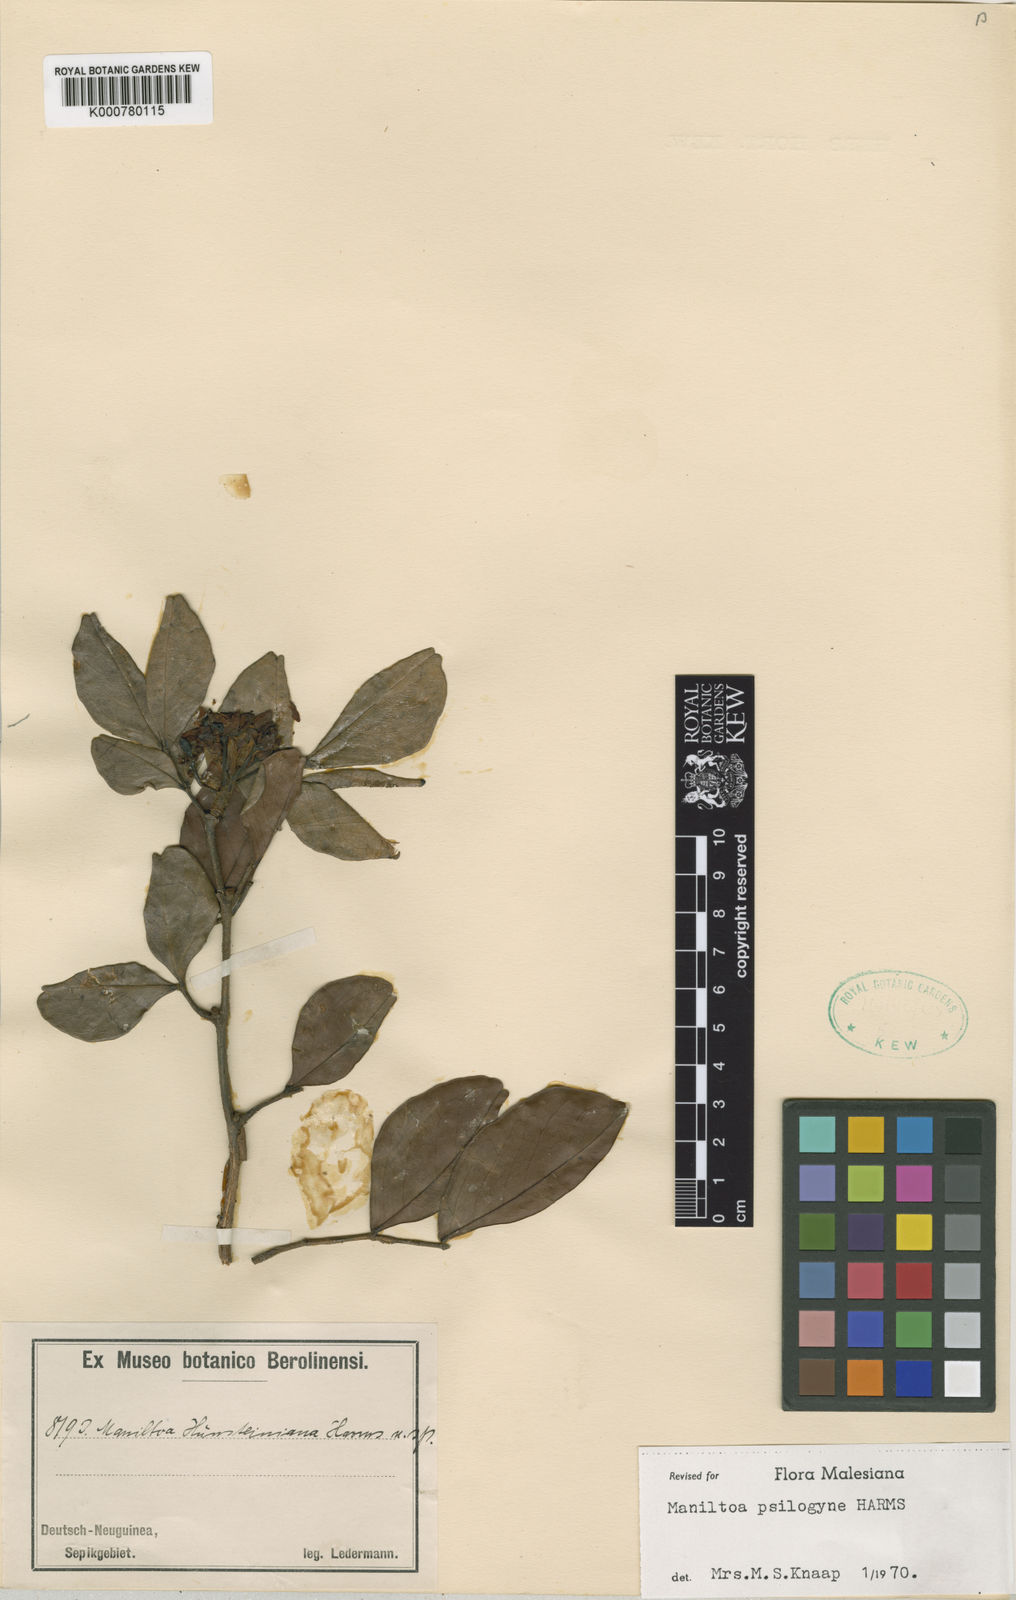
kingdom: Plantae
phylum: Tracheophyta
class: Magnoliopsida
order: Fabales
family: Fabaceae
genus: Cynometra
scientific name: Cynometra psilogyne
